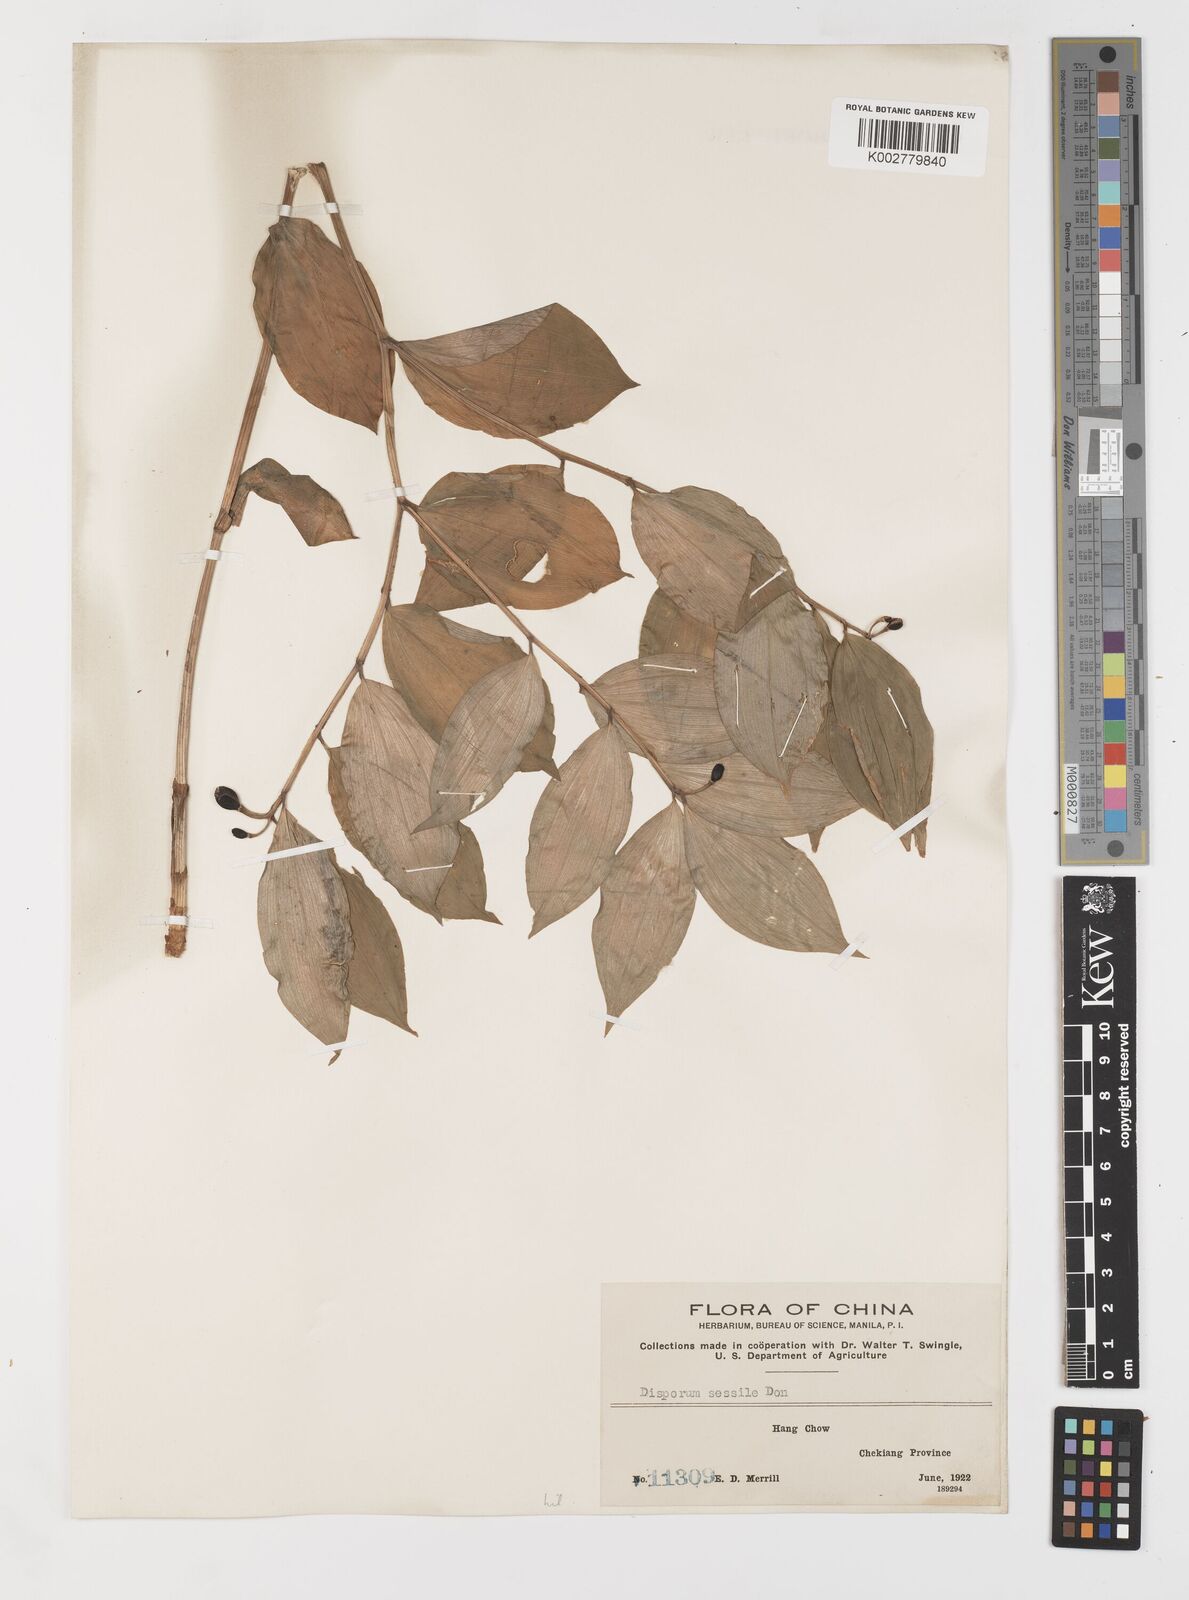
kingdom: Plantae
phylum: Tracheophyta
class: Liliopsida
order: Liliales
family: Colchicaceae
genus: Disporum
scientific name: Disporum sessile
